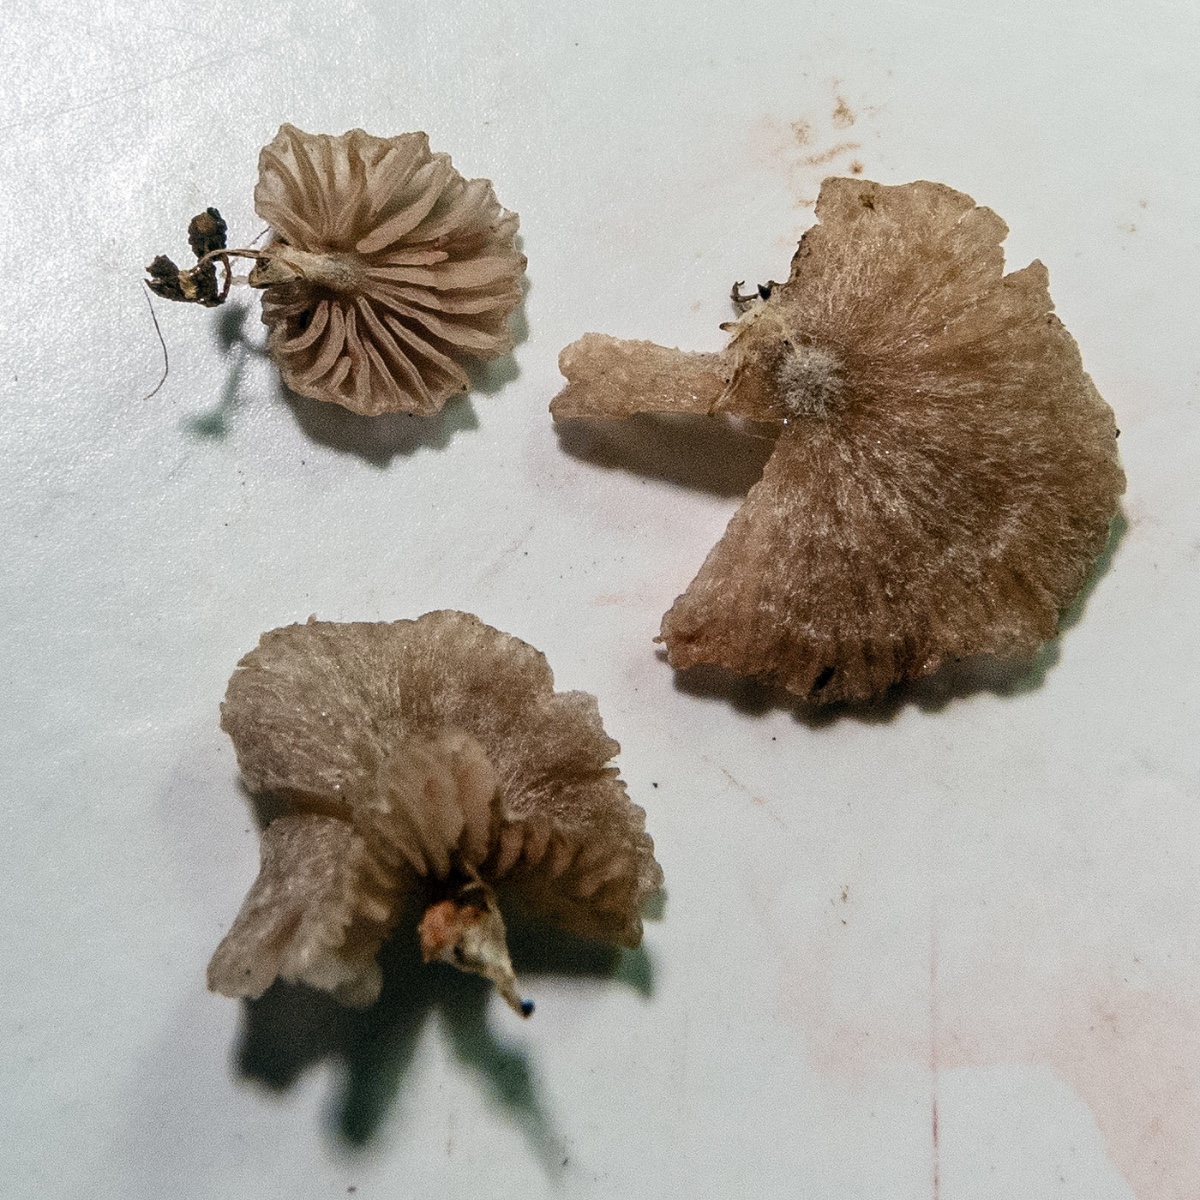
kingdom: Fungi
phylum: Basidiomycota
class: Agaricomycetes
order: Agaricales
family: Entolomataceae
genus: Entoloma
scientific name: Entoloma ollare
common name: muse-rødblad
